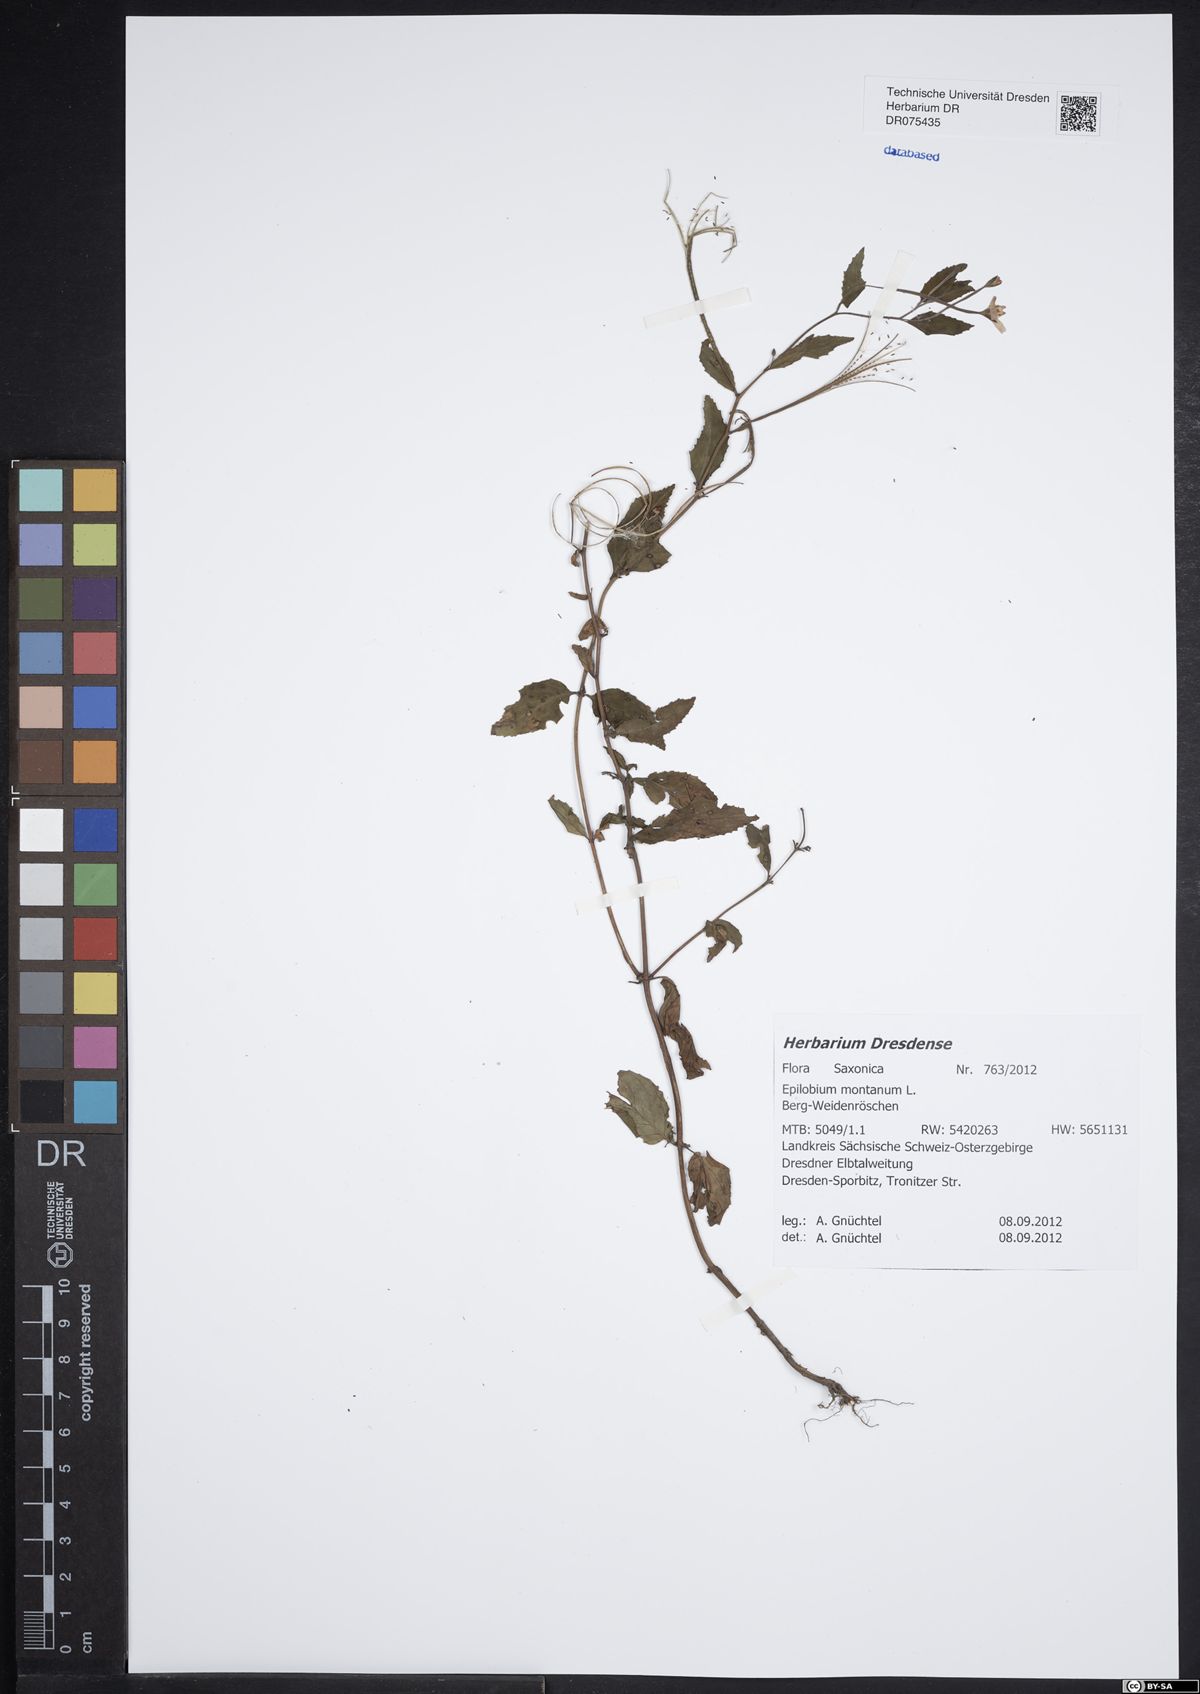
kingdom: Plantae
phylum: Tracheophyta
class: Magnoliopsida
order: Myrtales
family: Onagraceae
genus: Epilobium
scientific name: Epilobium montanum
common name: Broad-leaved willowherb
